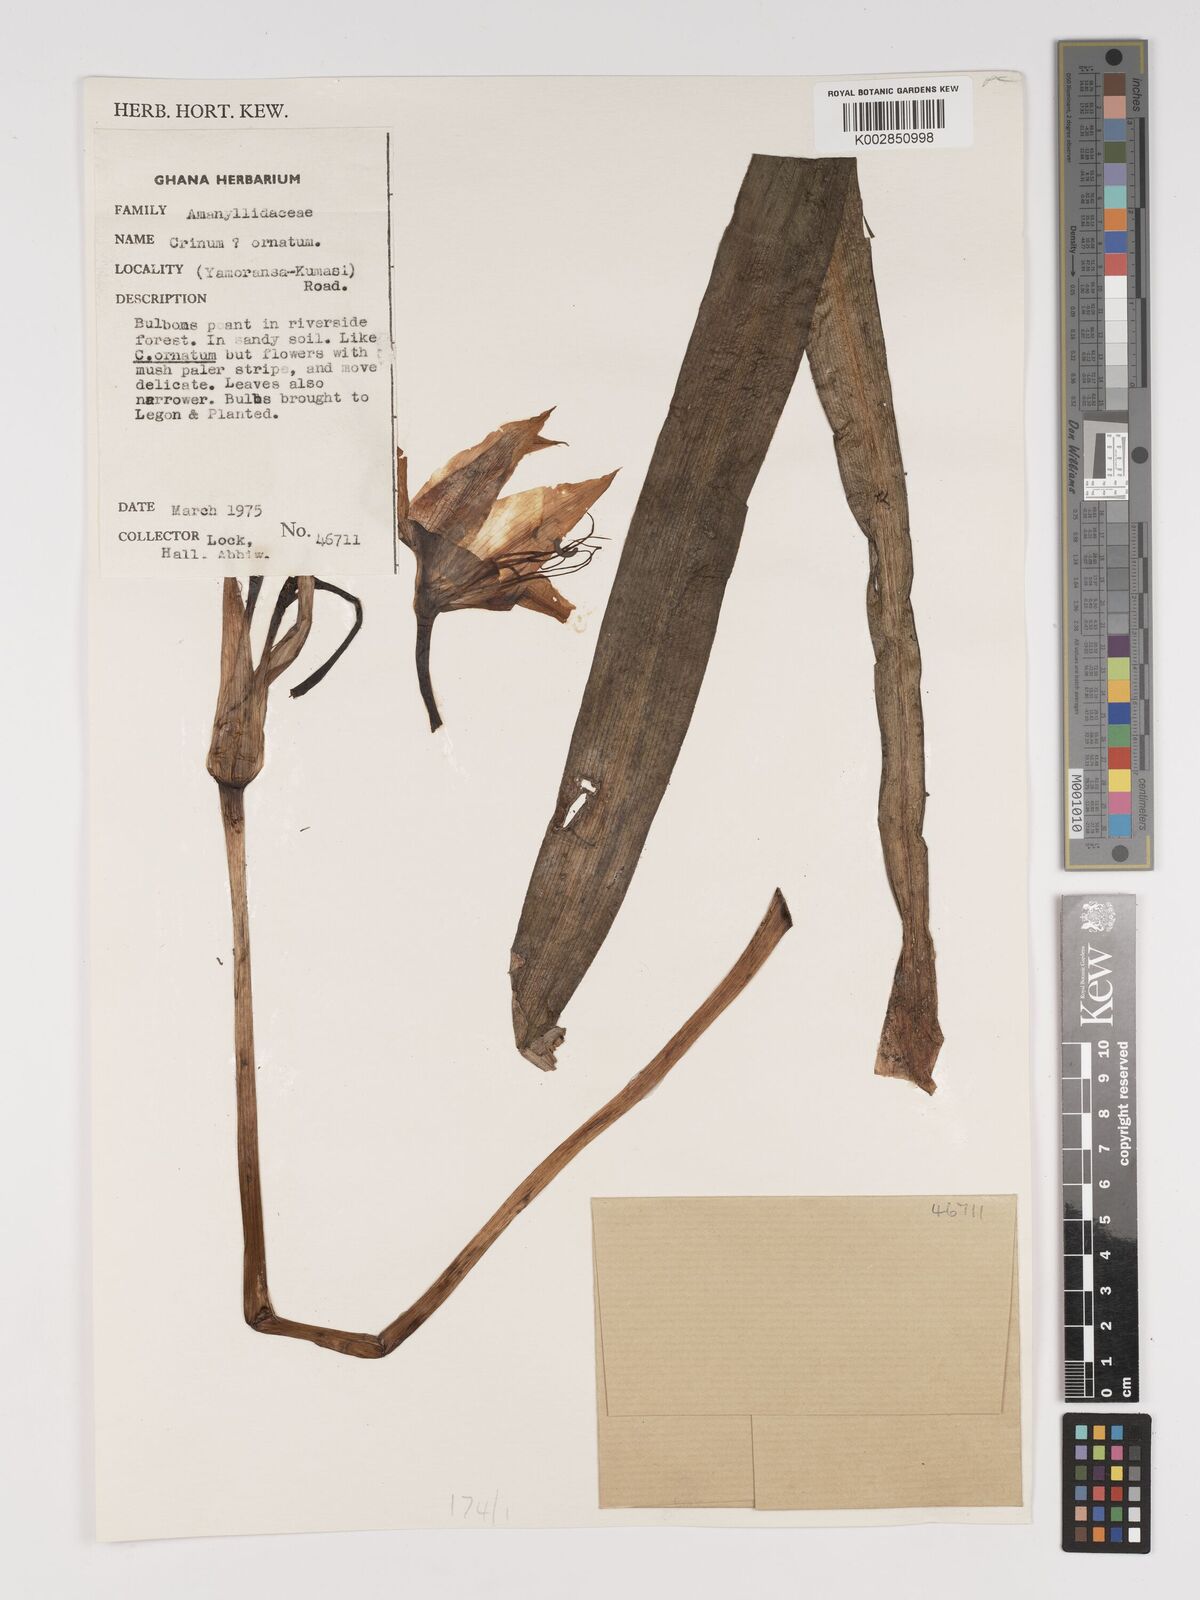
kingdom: Plantae
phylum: Tracheophyta
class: Liliopsida
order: Asparagales
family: Amaryllidaceae
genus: Crinum
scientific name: Crinum zeylanicum
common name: Ceylon swamplily
